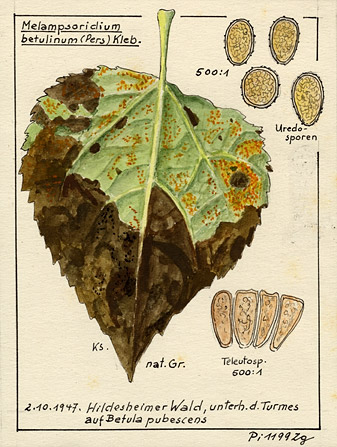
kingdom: Fungi
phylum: Basidiomycota
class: Pucciniomycetes
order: Pucciniales
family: Pucciniastraceae
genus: Melampsoridium
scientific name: Melampsoridium betulinum
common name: Birch rust
